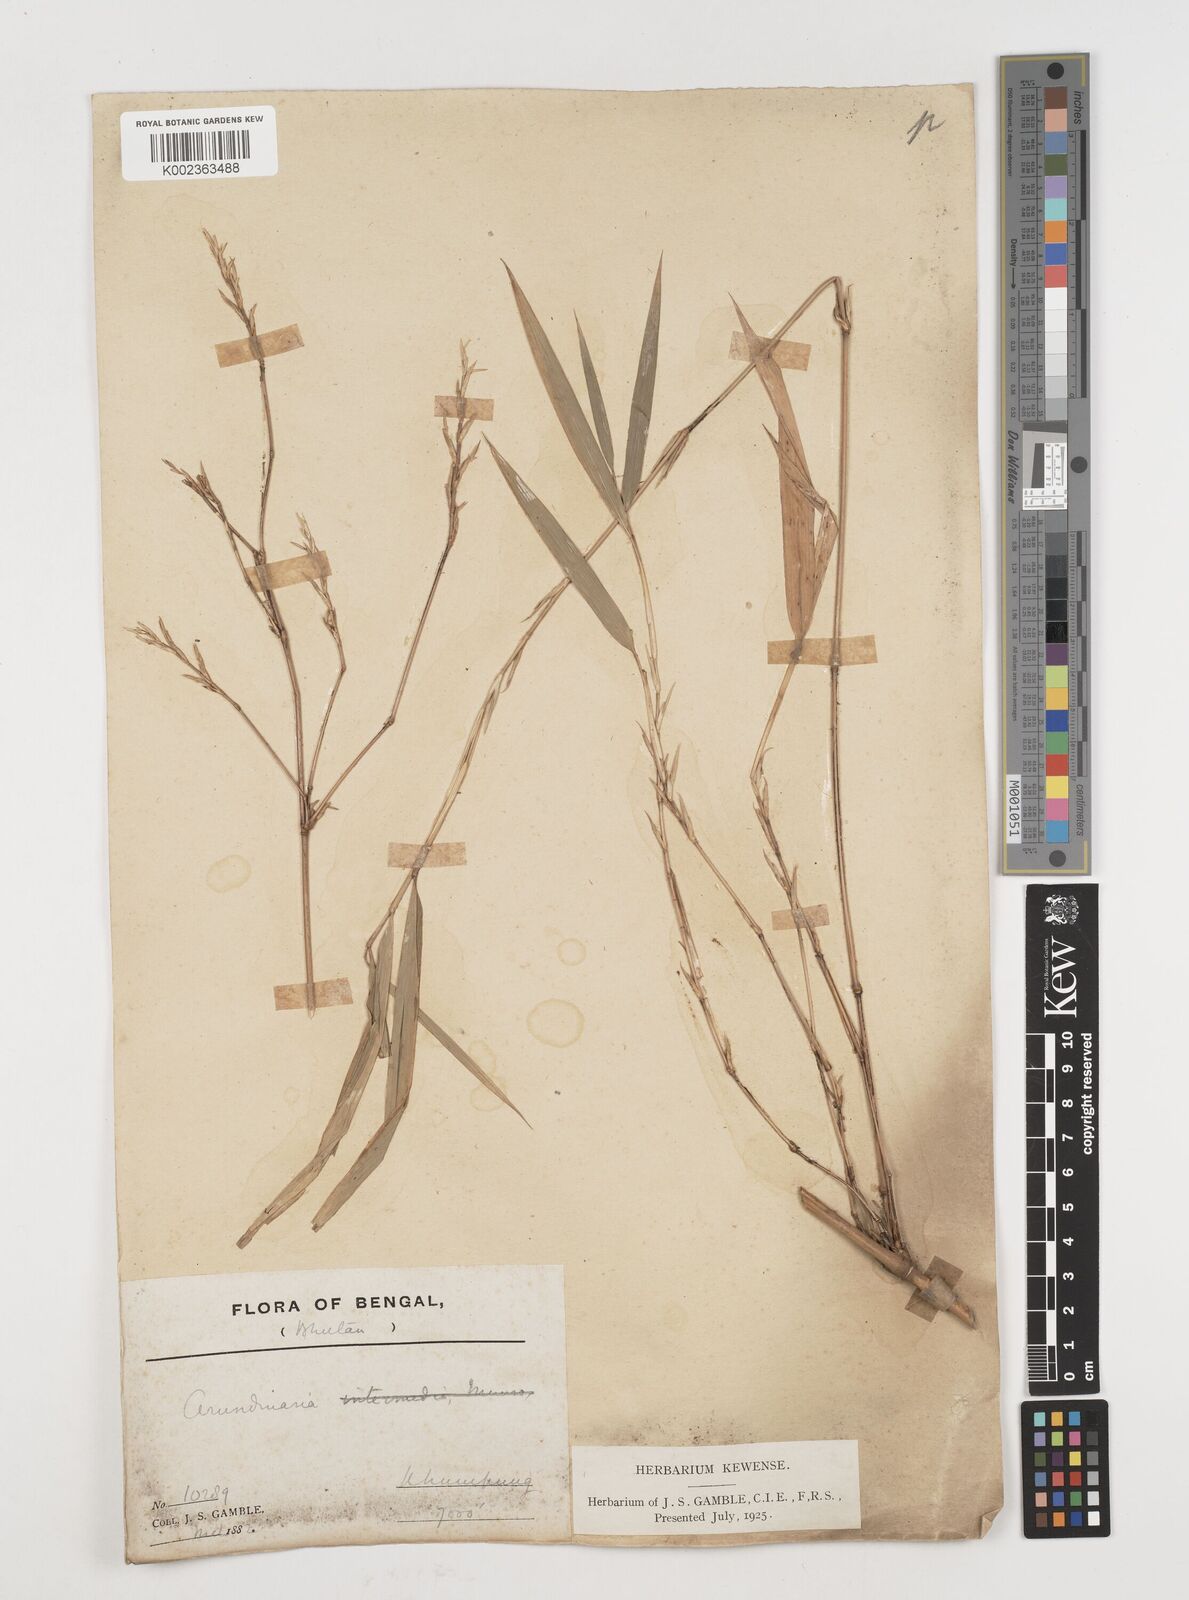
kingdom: Plantae
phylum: Tracheophyta
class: Liliopsida
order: Poales
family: Poaceae
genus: Himalayacalamus
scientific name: Himalayacalamus
